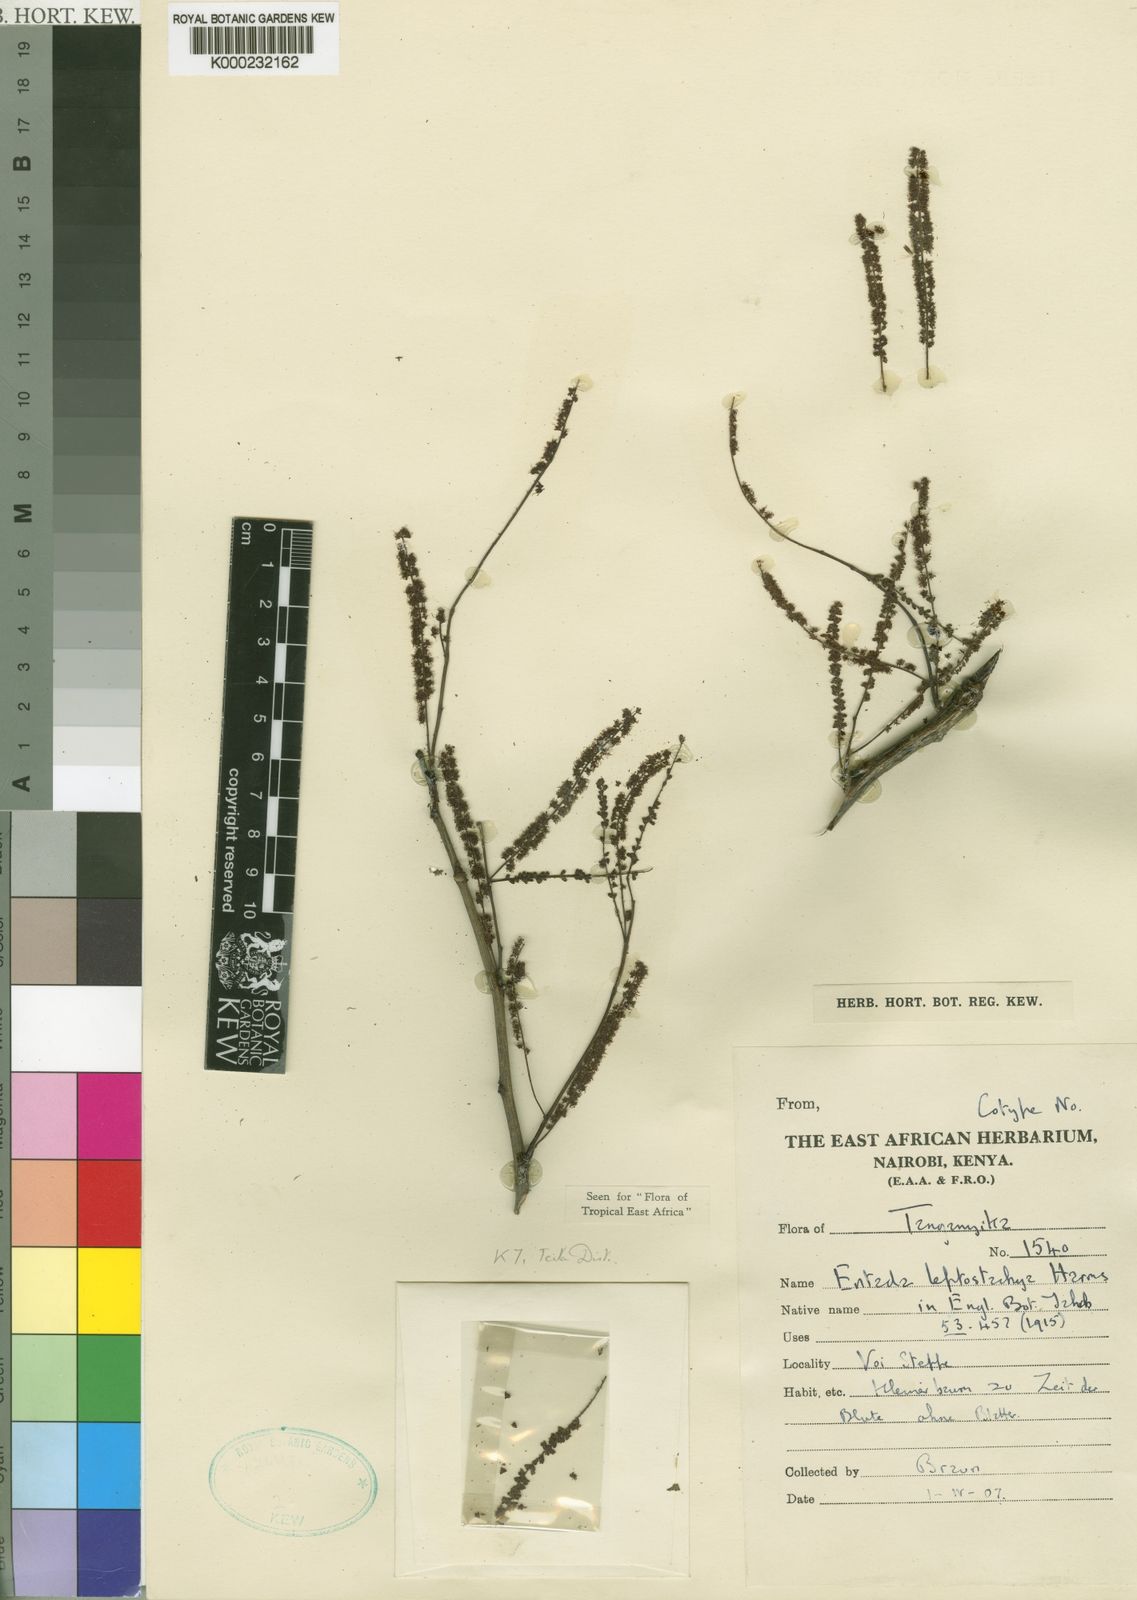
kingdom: Plantae
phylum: Tracheophyta
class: Magnoliopsida
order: Fabales
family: Fabaceae
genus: Entada
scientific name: Entada leptostachya
